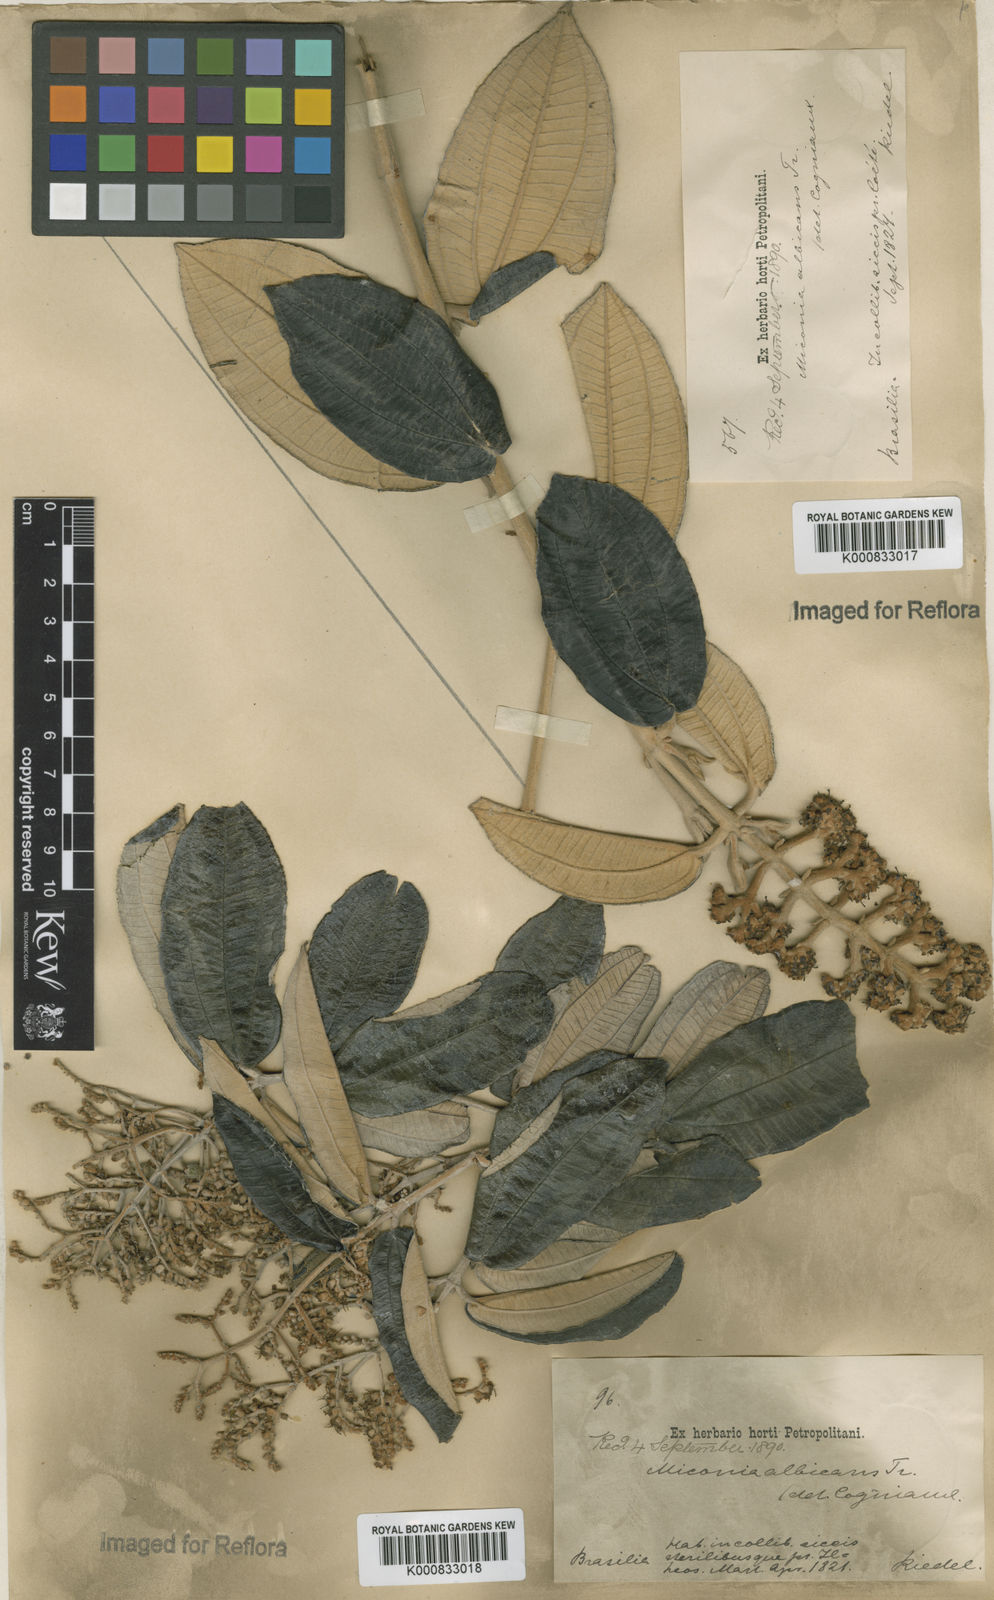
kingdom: Plantae
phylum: Tracheophyta
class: Magnoliopsida
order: Myrtales
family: Melastomataceae
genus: Miconia
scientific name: Miconia albicans
